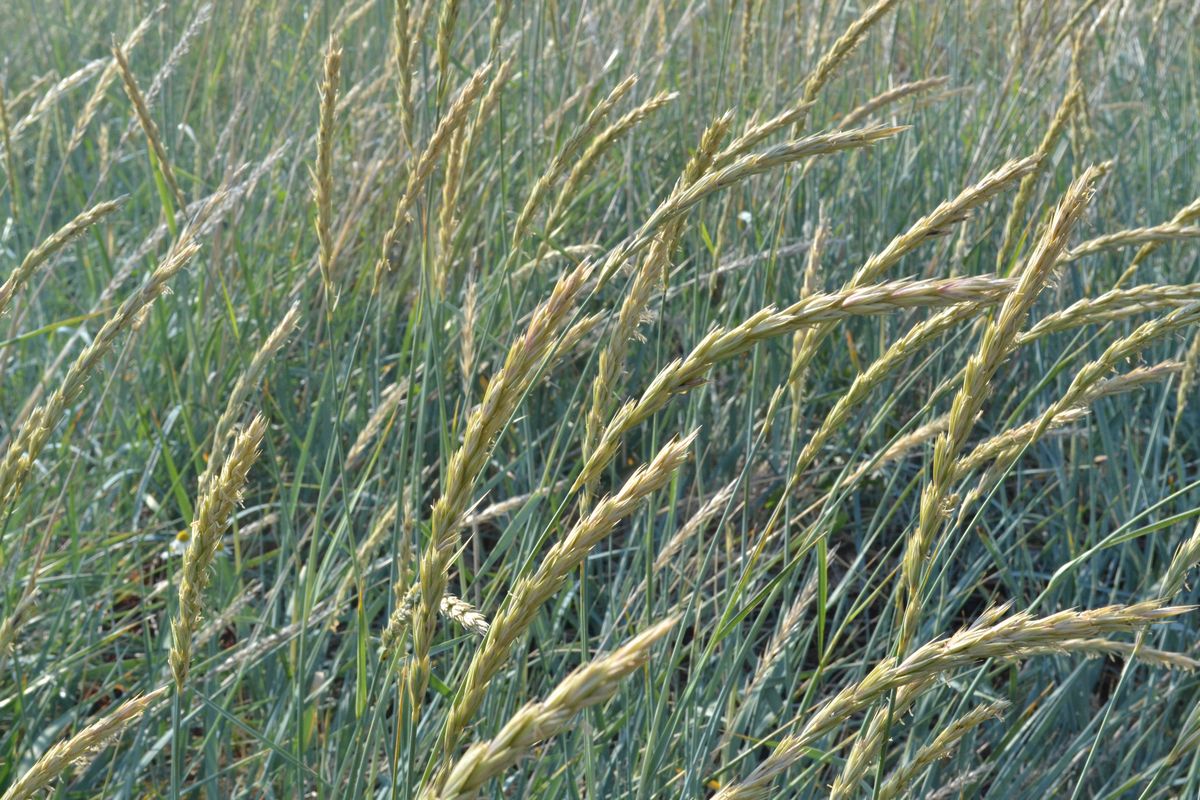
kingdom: Plantae
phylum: Tracheophyta
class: Liliopsida
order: Poales
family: Poaceae
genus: Leymus
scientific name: Leymus arenarius
